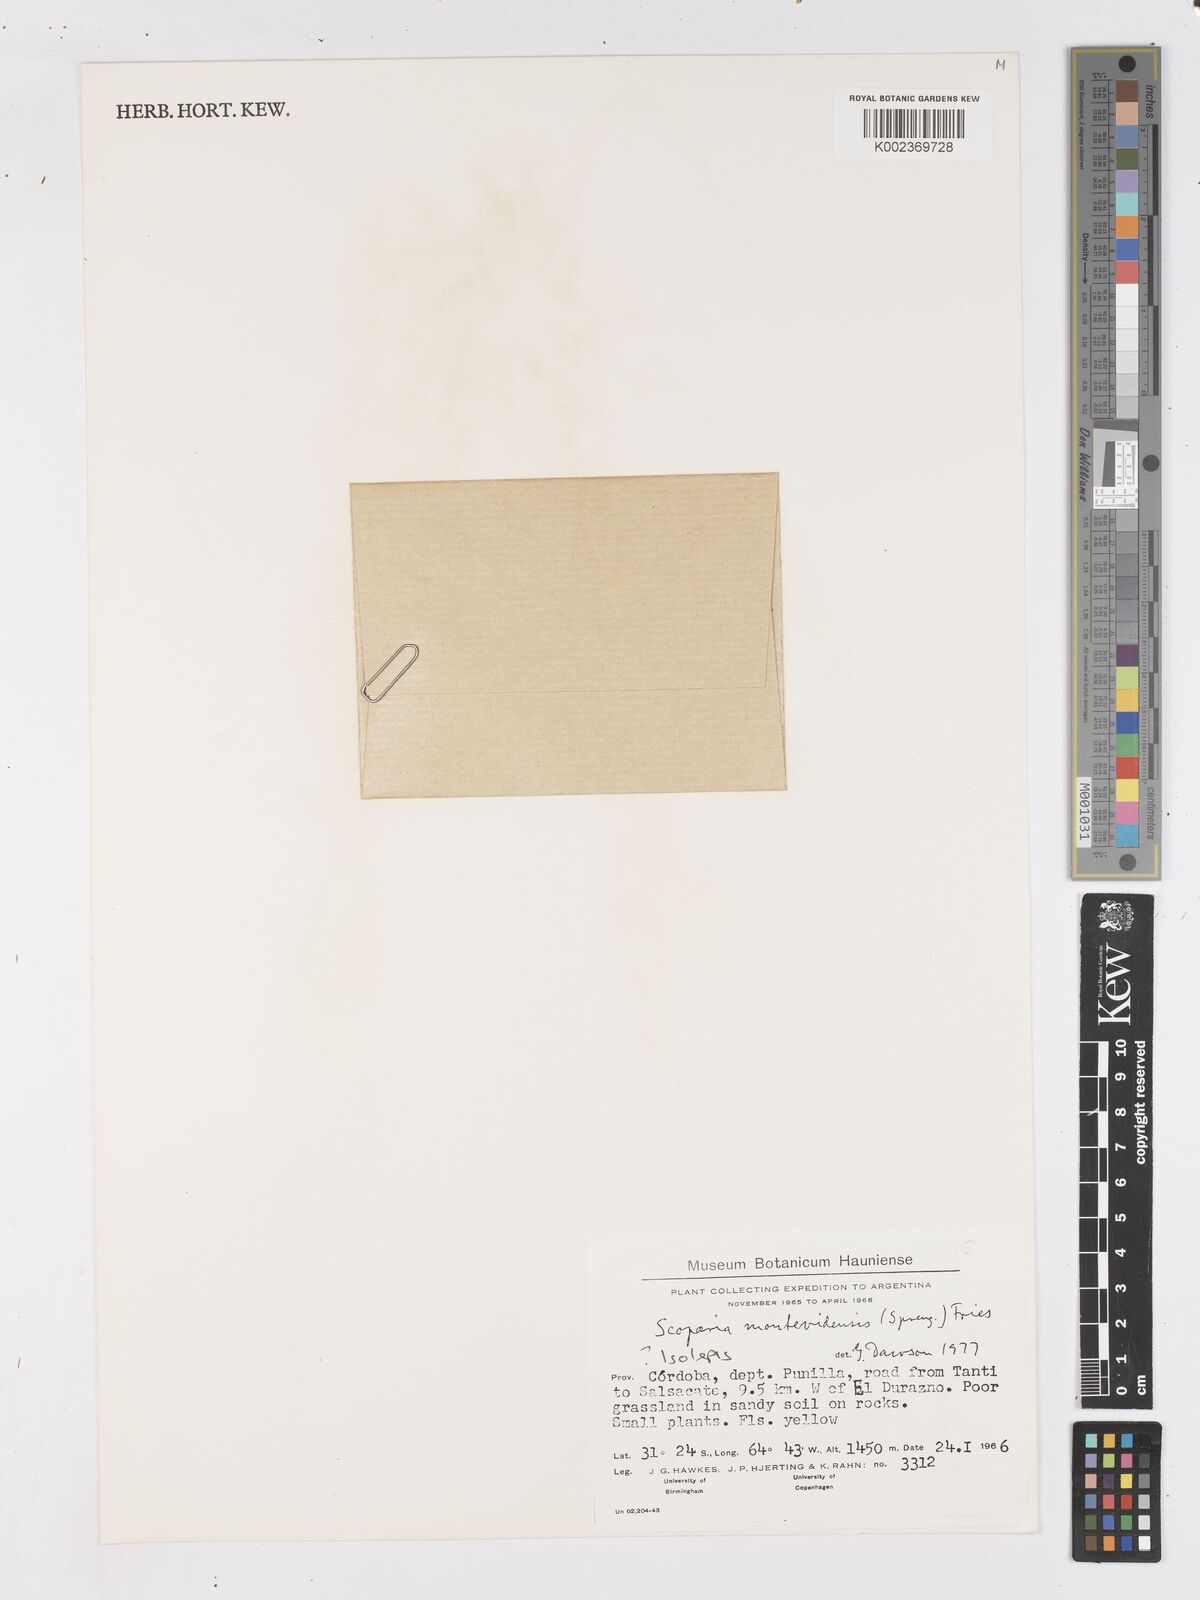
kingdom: Plantae
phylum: Tracheophyta
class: Liliopsida
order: Poales
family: Cyperaceae
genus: Isolepis
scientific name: Isolepis
